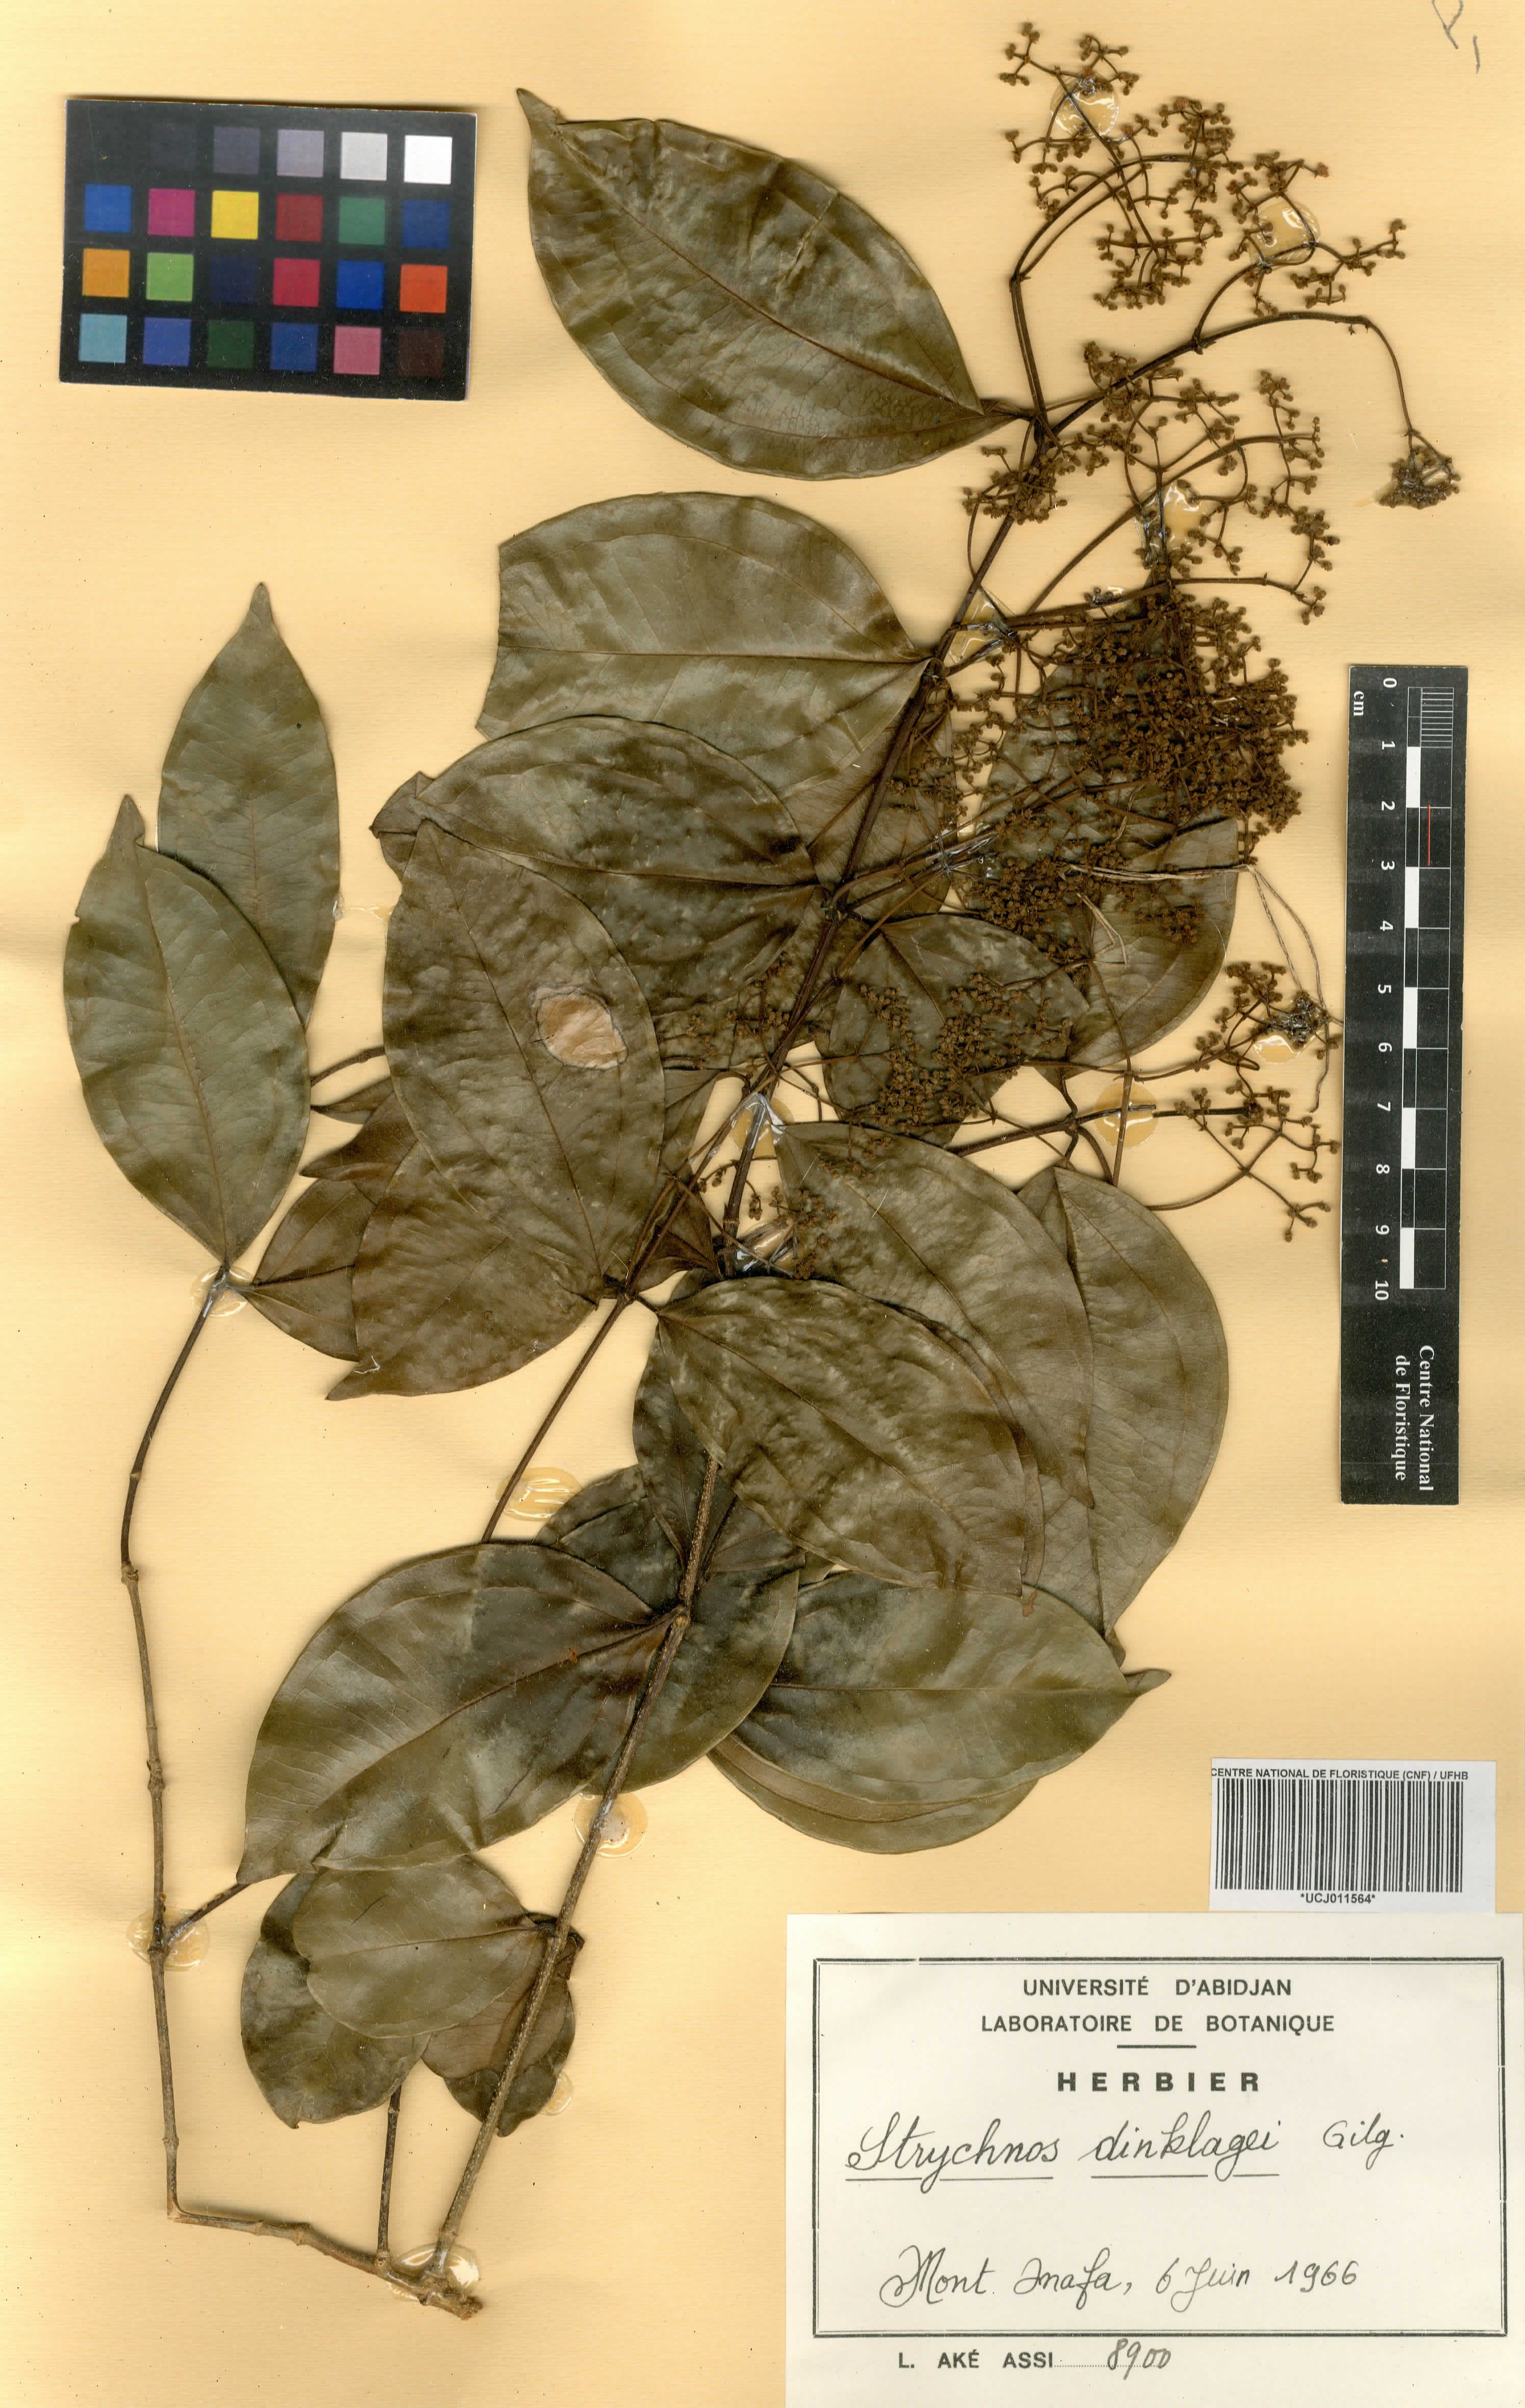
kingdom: Plantae
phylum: Tracheophyta
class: Magnoliopsida
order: Gentianales
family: Loganiaceae
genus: Strychnos
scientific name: Strychnos dinklagei
